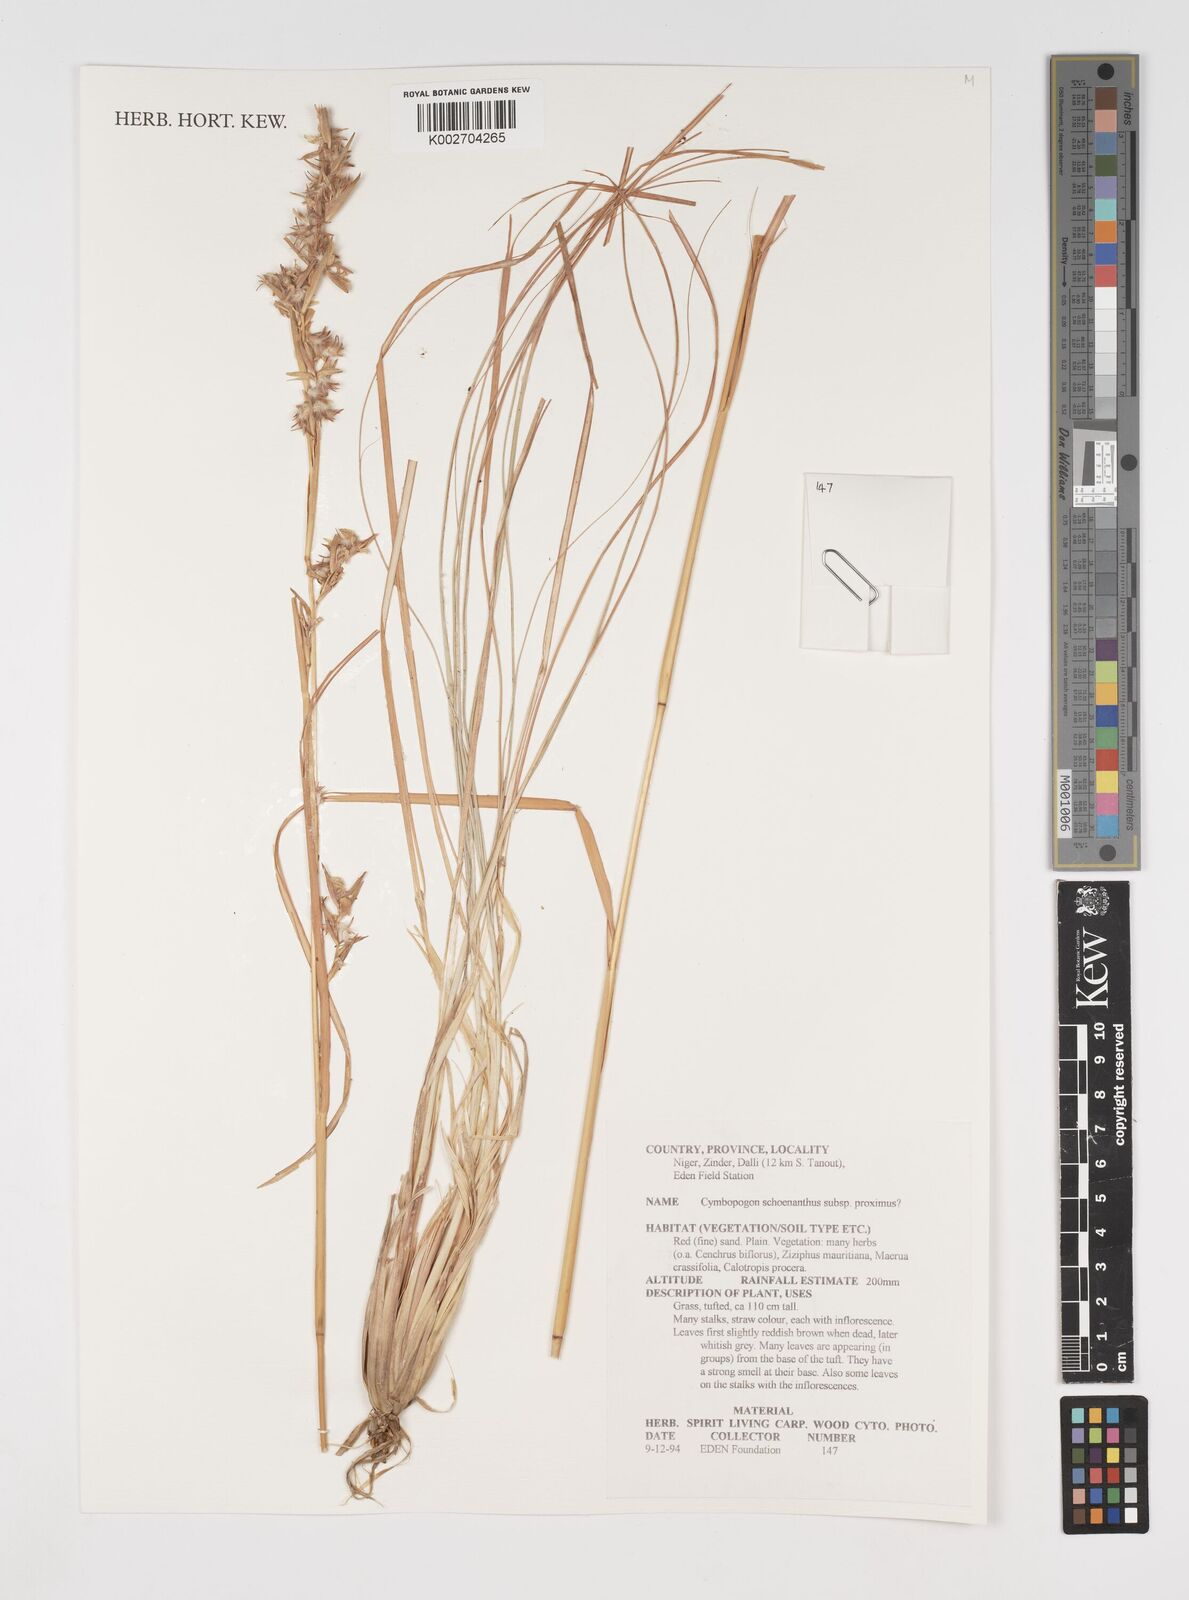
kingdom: Plantae
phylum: Tracheophyta
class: Liliopsida
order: Poales
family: Poaceae
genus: Cymbopogon
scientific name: Cymbopogon schoenanthus
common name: Geranium grass
